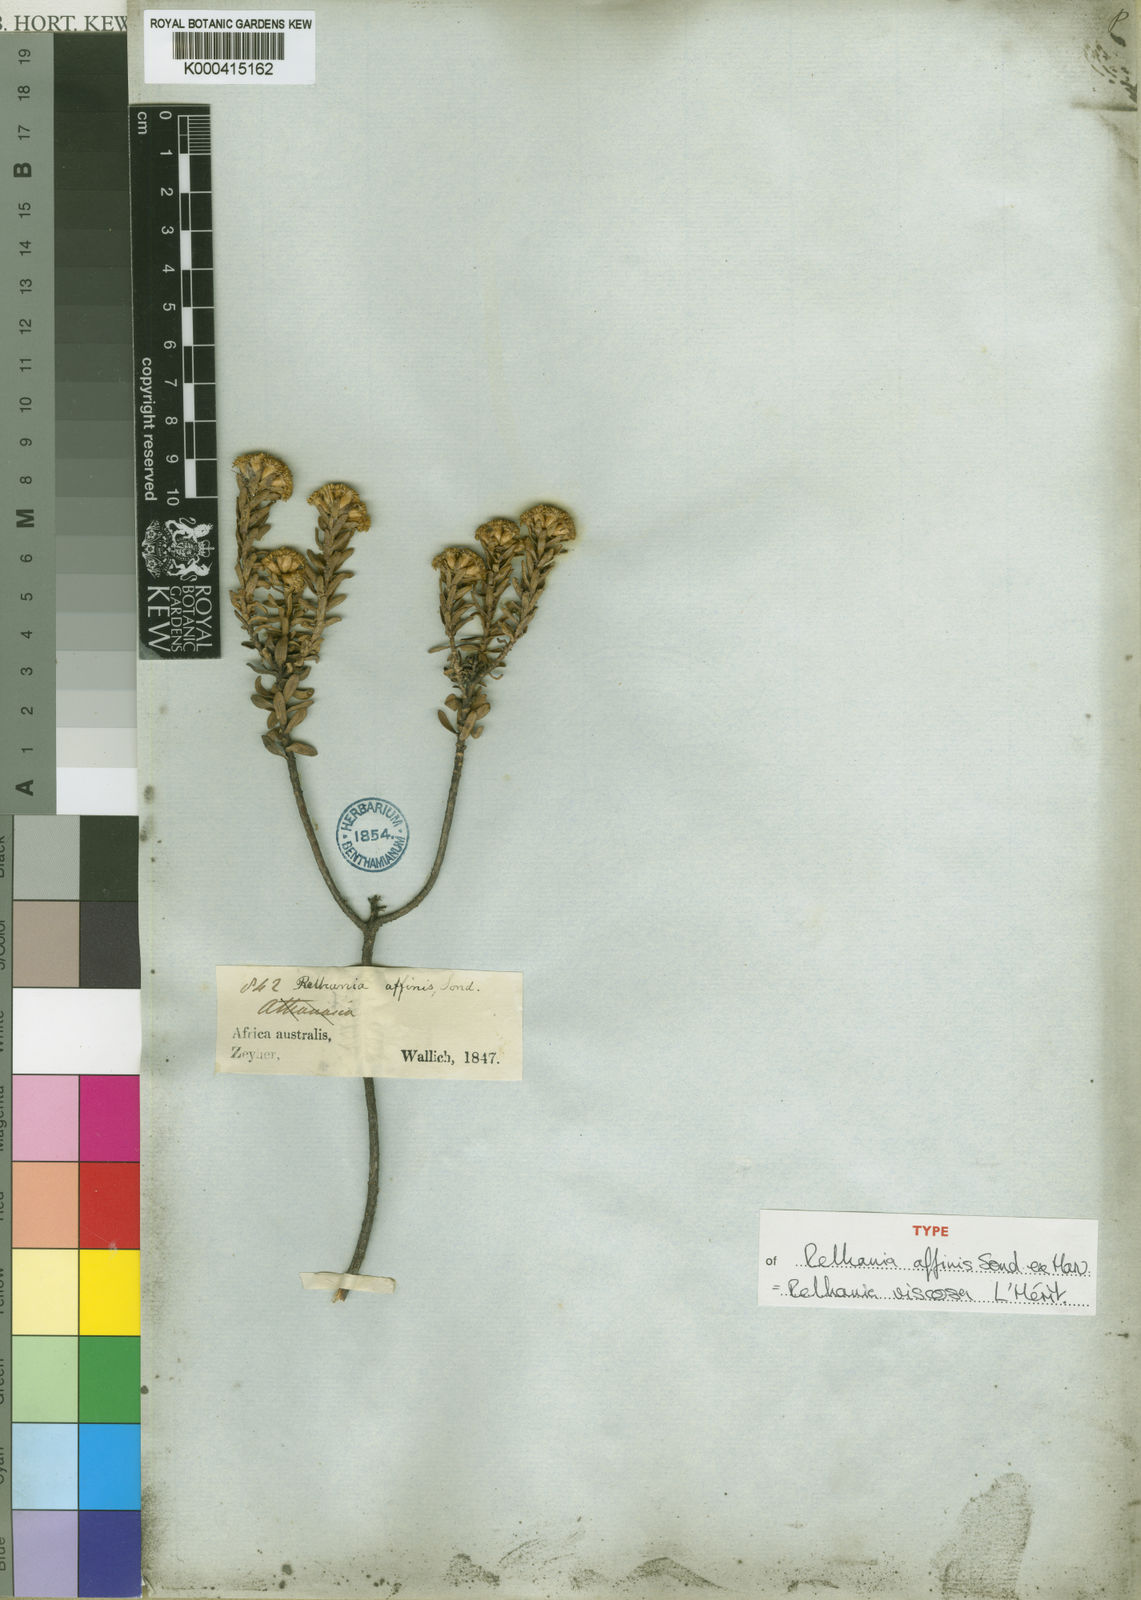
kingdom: Plantae
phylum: Tracheophyta
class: Magnoliopsida
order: Asterales
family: Asteraceae
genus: Oedera
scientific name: Oedera Relhania spec
